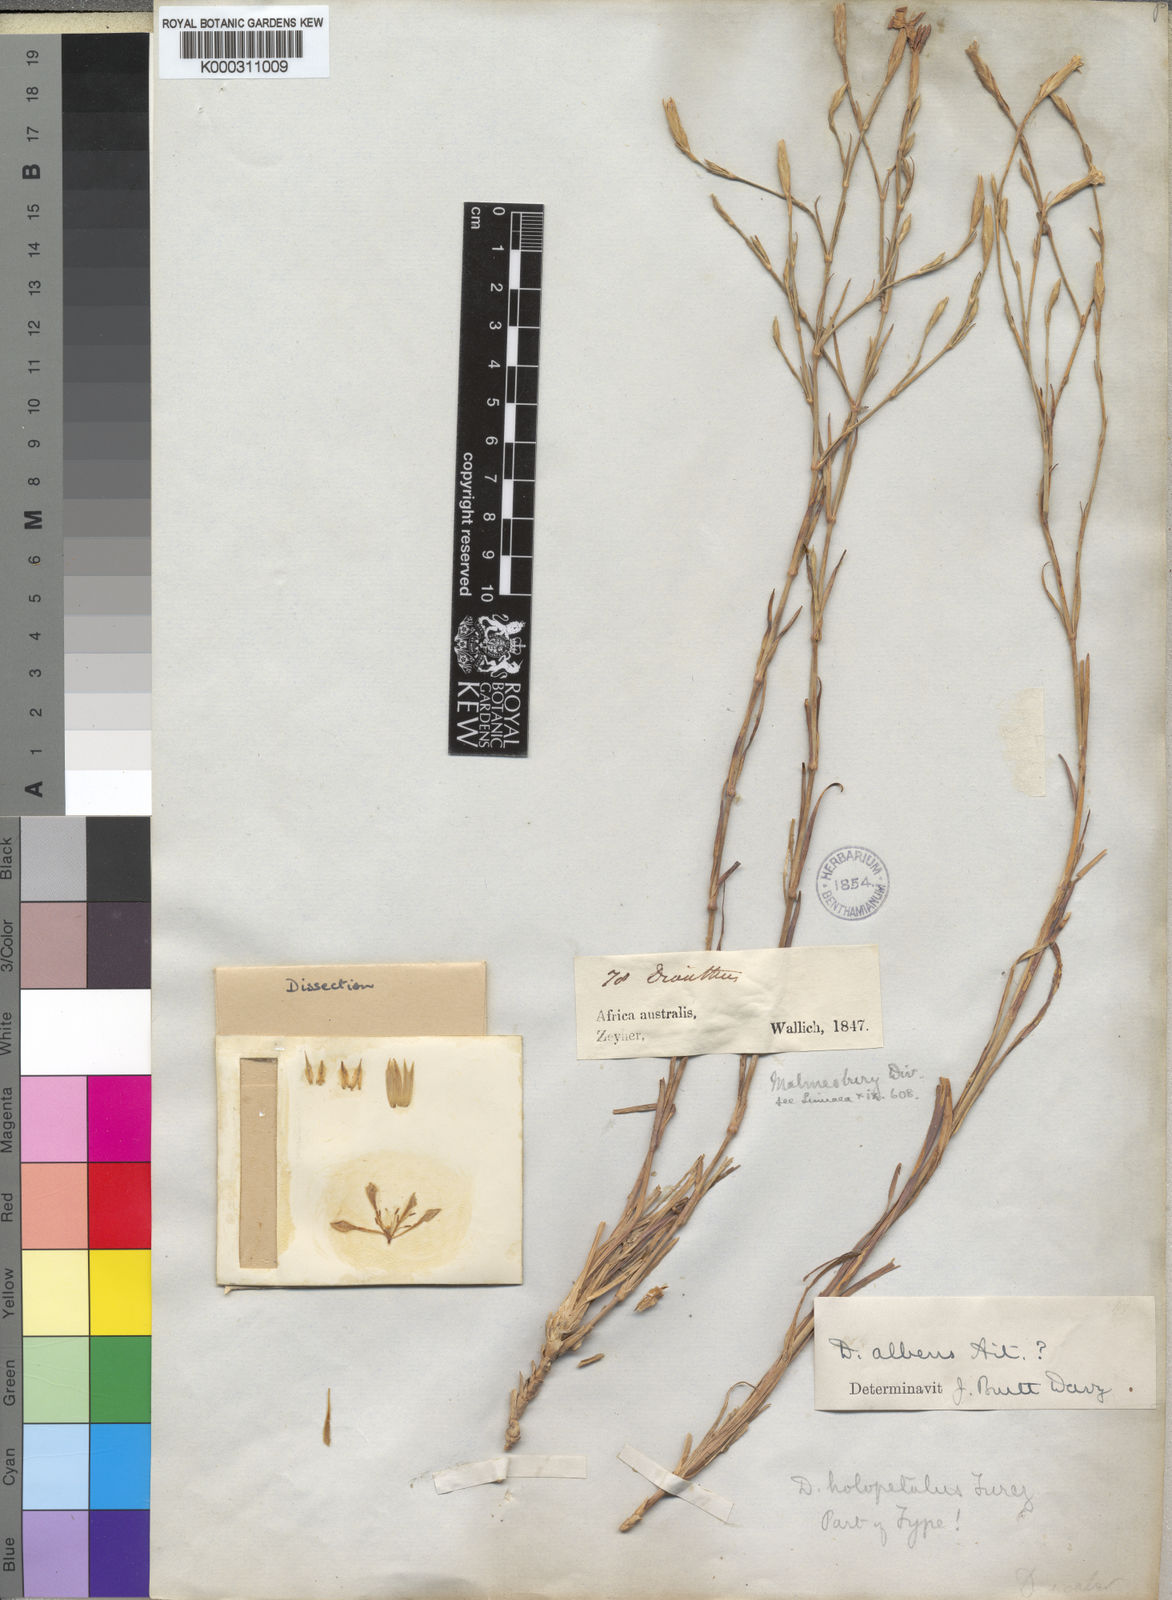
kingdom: Plantae
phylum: Tracheophyta
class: Magnoliopsida
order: Caryophyllales
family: Caryophyllaceae
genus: Dianthus
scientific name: Dianthus albens
